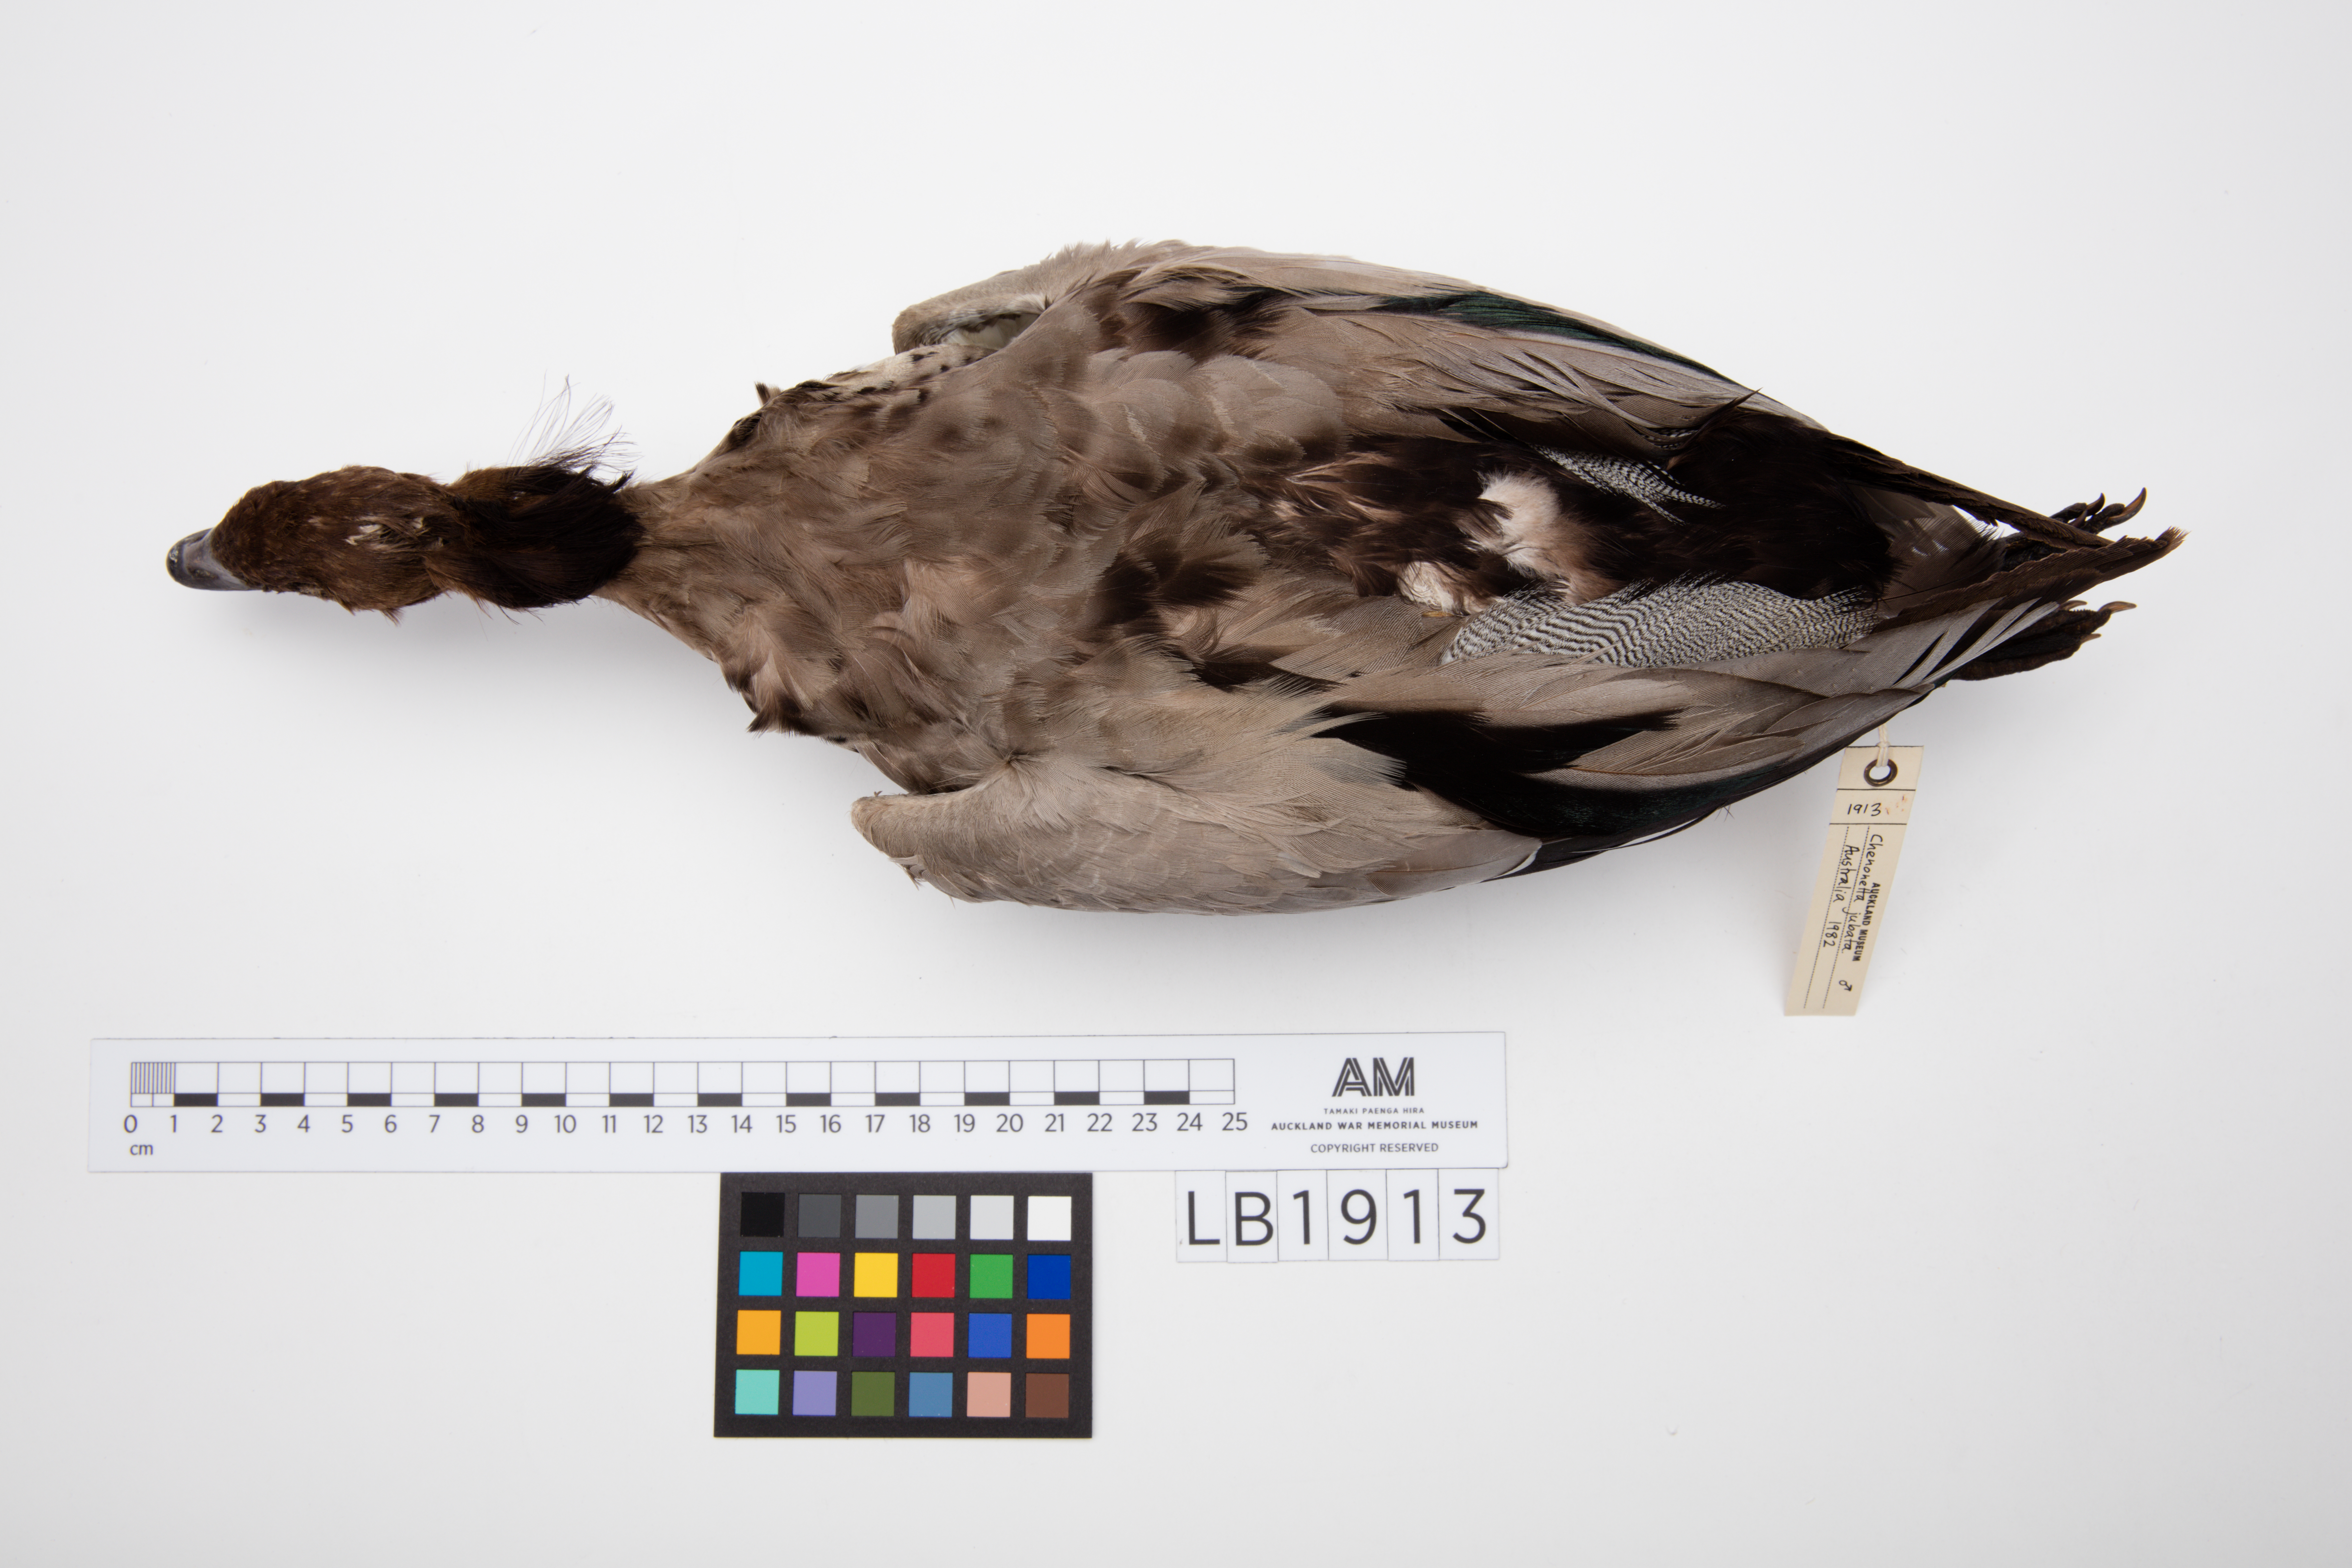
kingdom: Animalia
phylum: Chordata
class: Aves
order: Anseriformes
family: Anatidae
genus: Chenonetta
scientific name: Chenonetta jubata
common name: Maned duck
